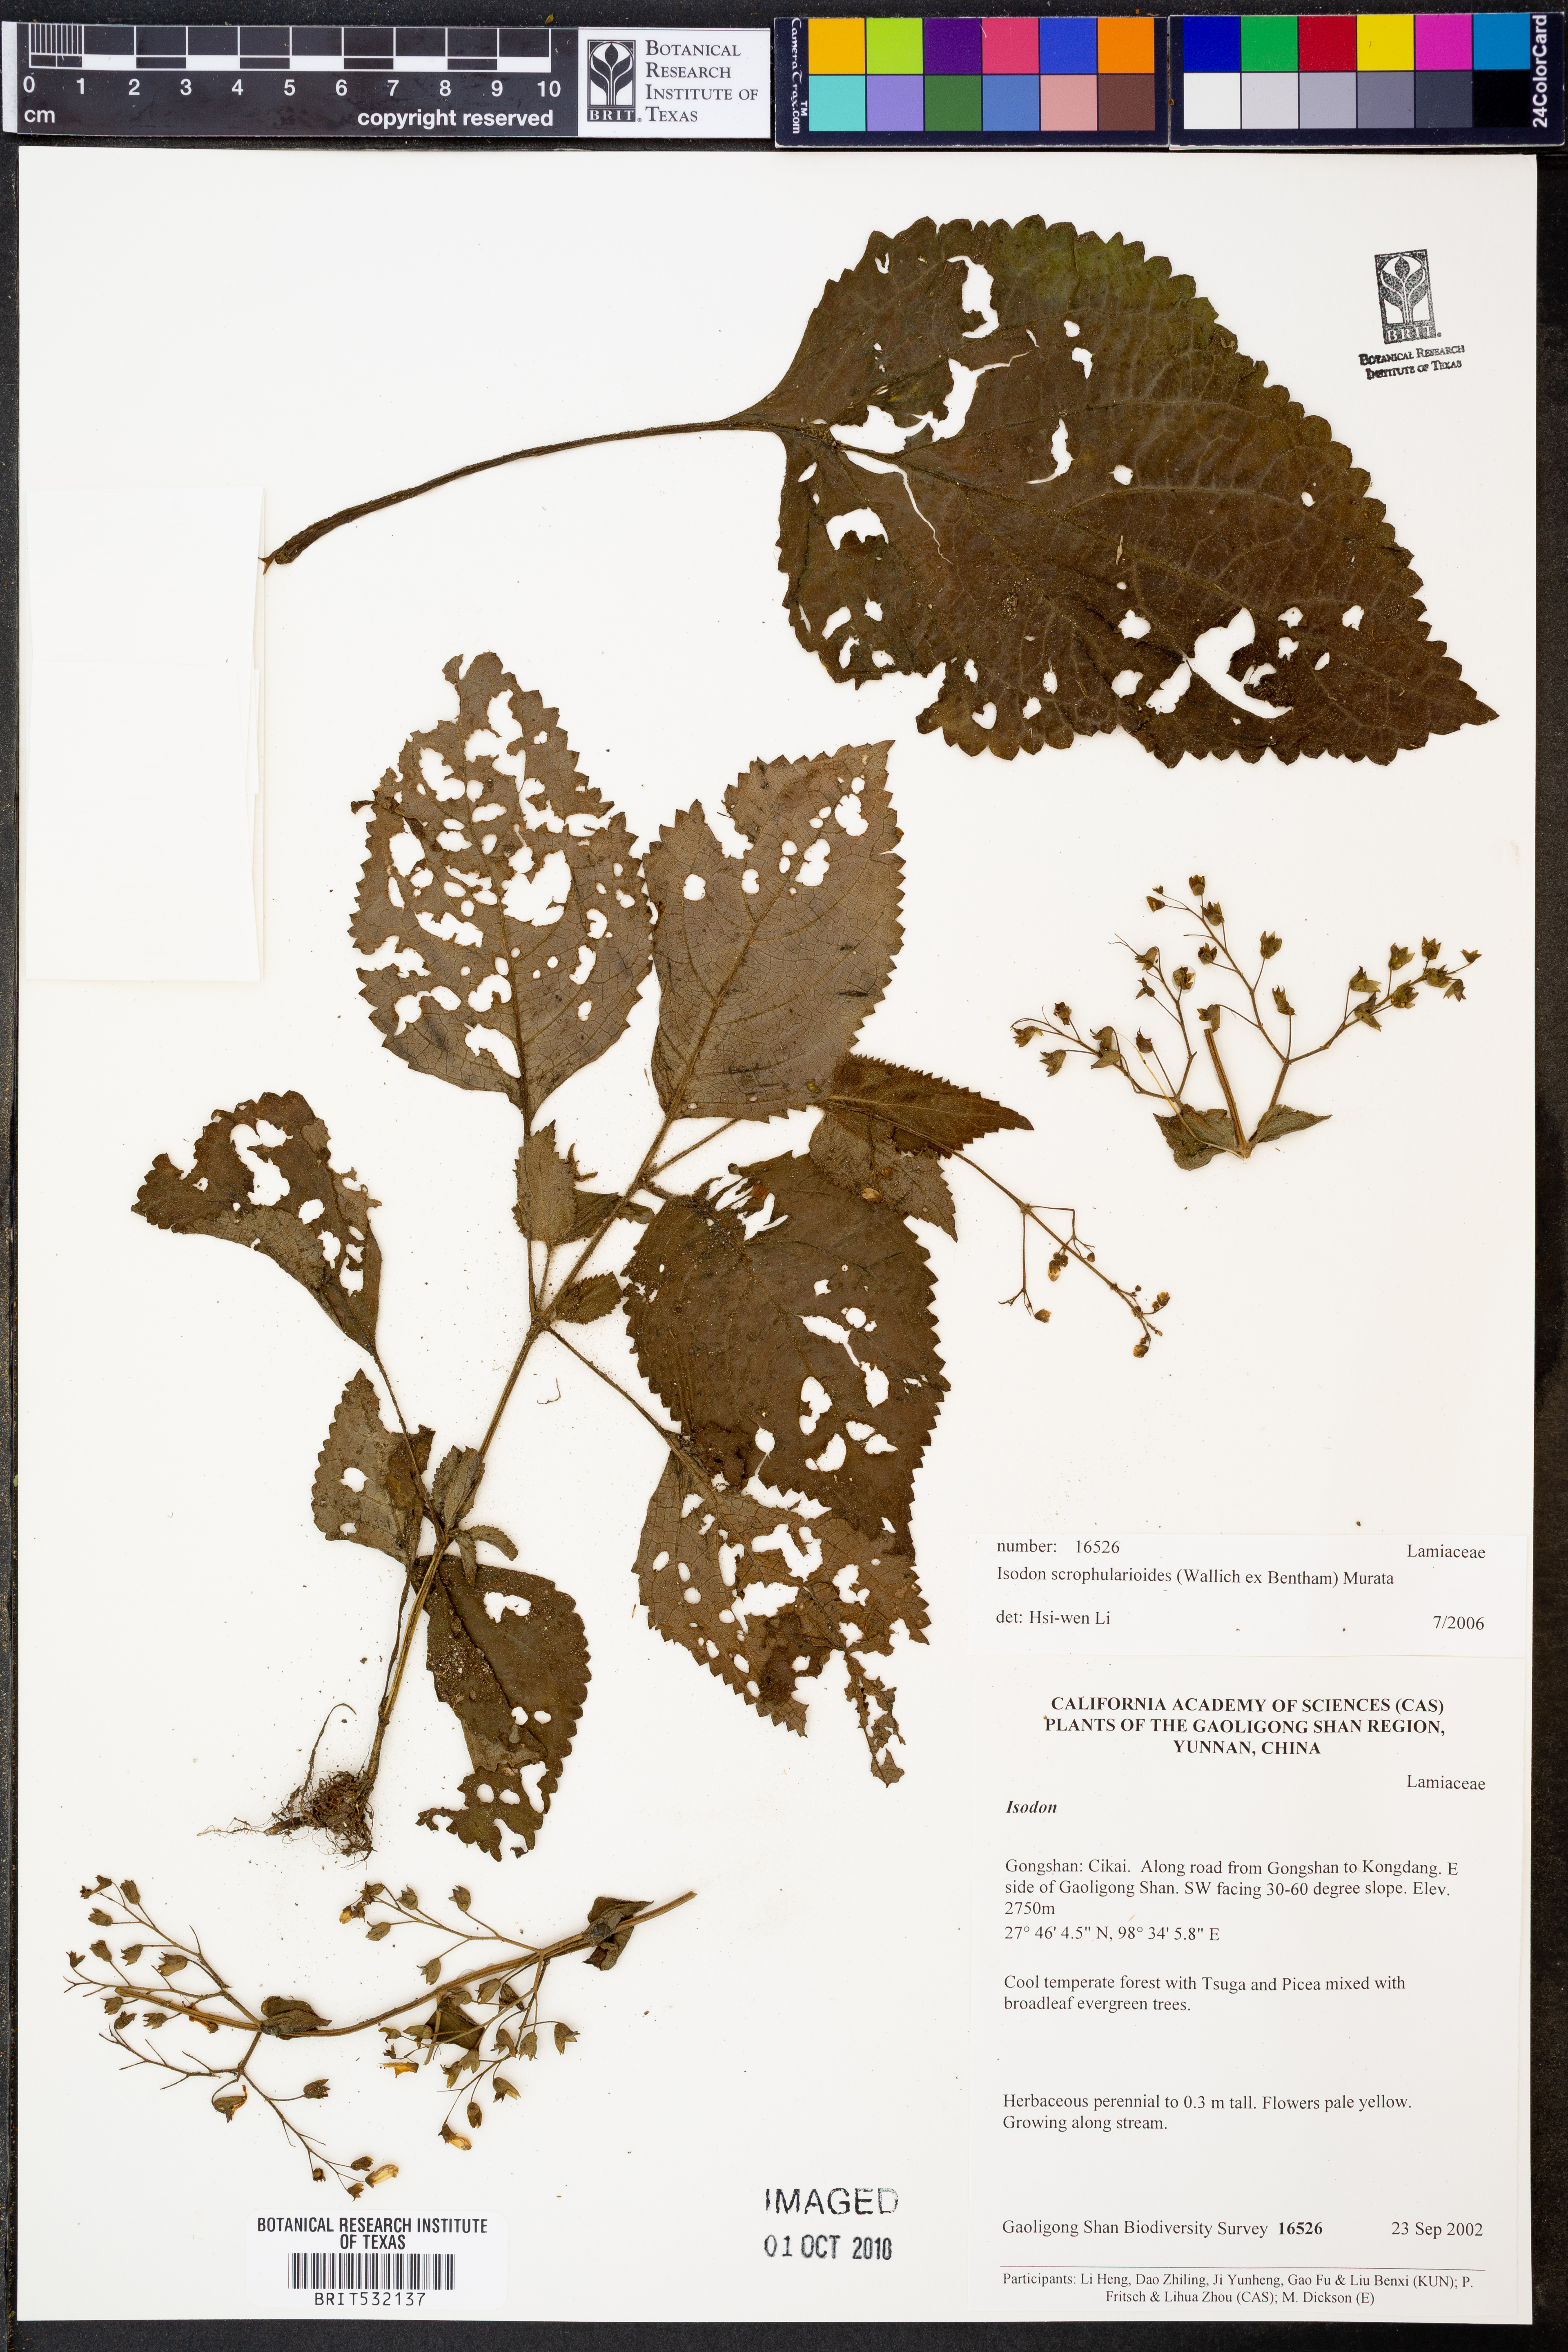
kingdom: Plantae
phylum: Tracheophyta
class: Magnoliopsida
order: Lamiales
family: Lamiaceae
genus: Isodon
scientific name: Isodon scrophularioides
